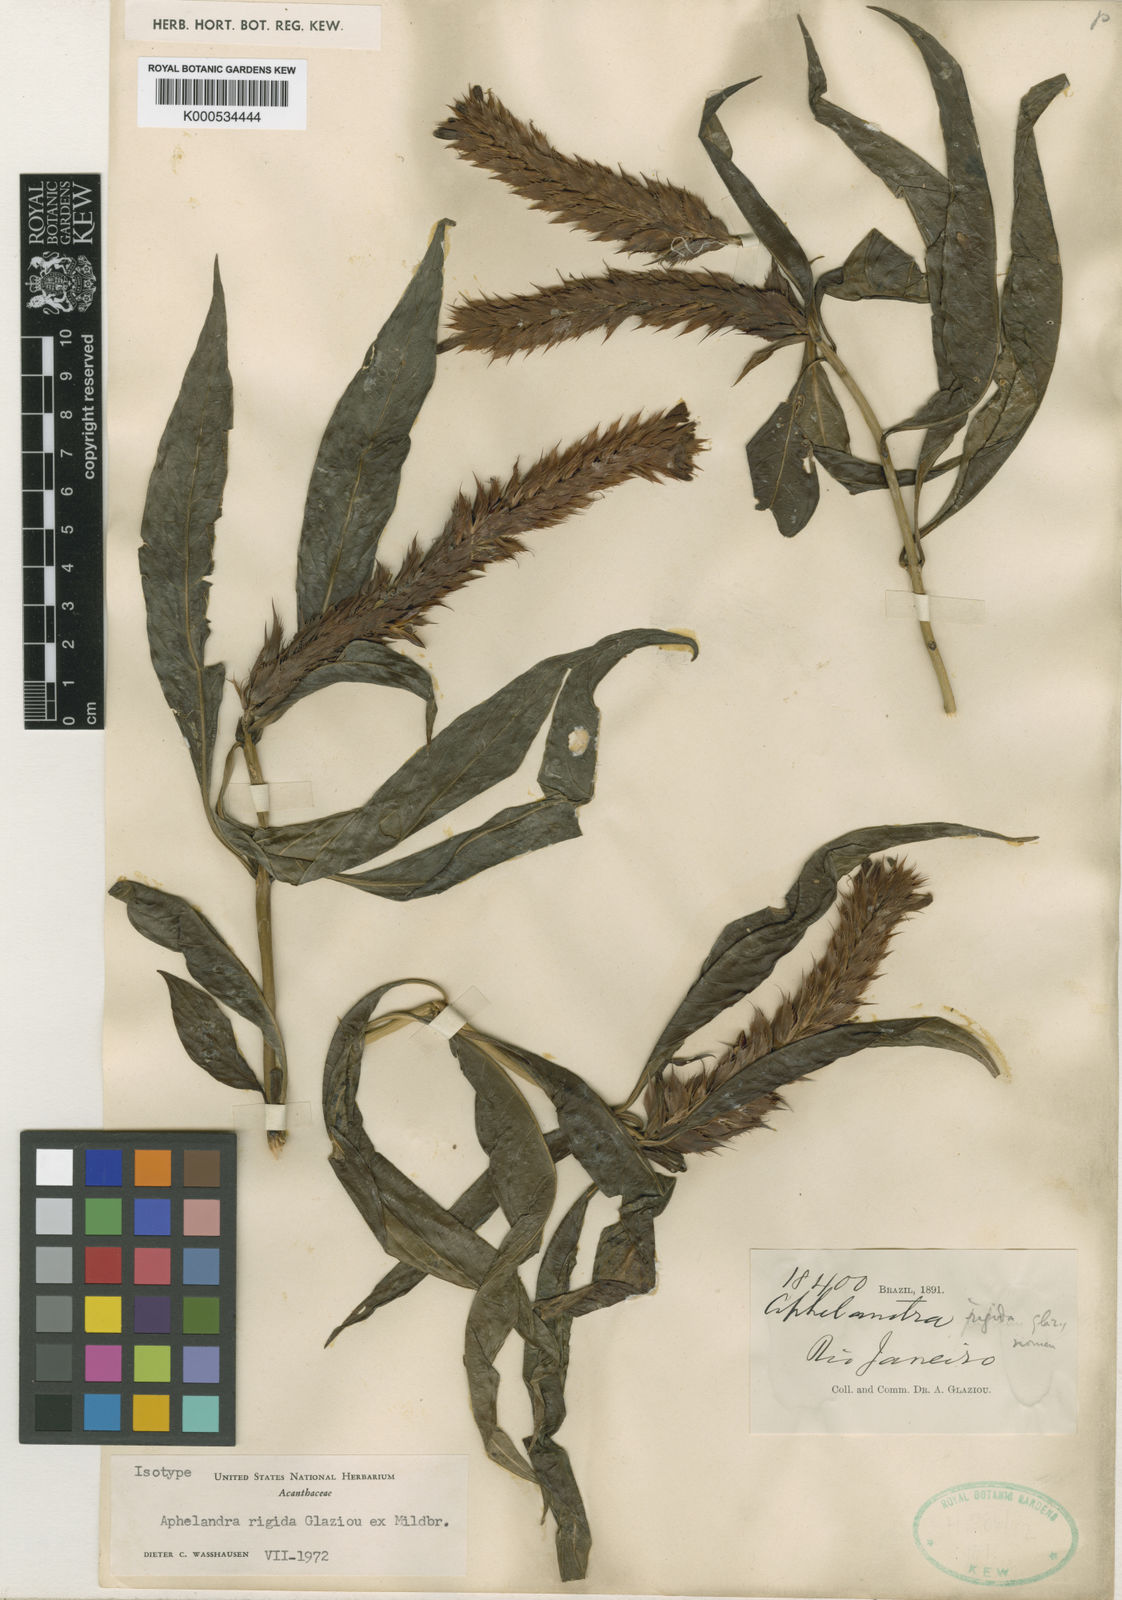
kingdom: Plantae
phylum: Tracheophyta
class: Magnoliopsida
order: Lamiales
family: Acanthaceae
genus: Aphelandra
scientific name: Aphelandra rigida
